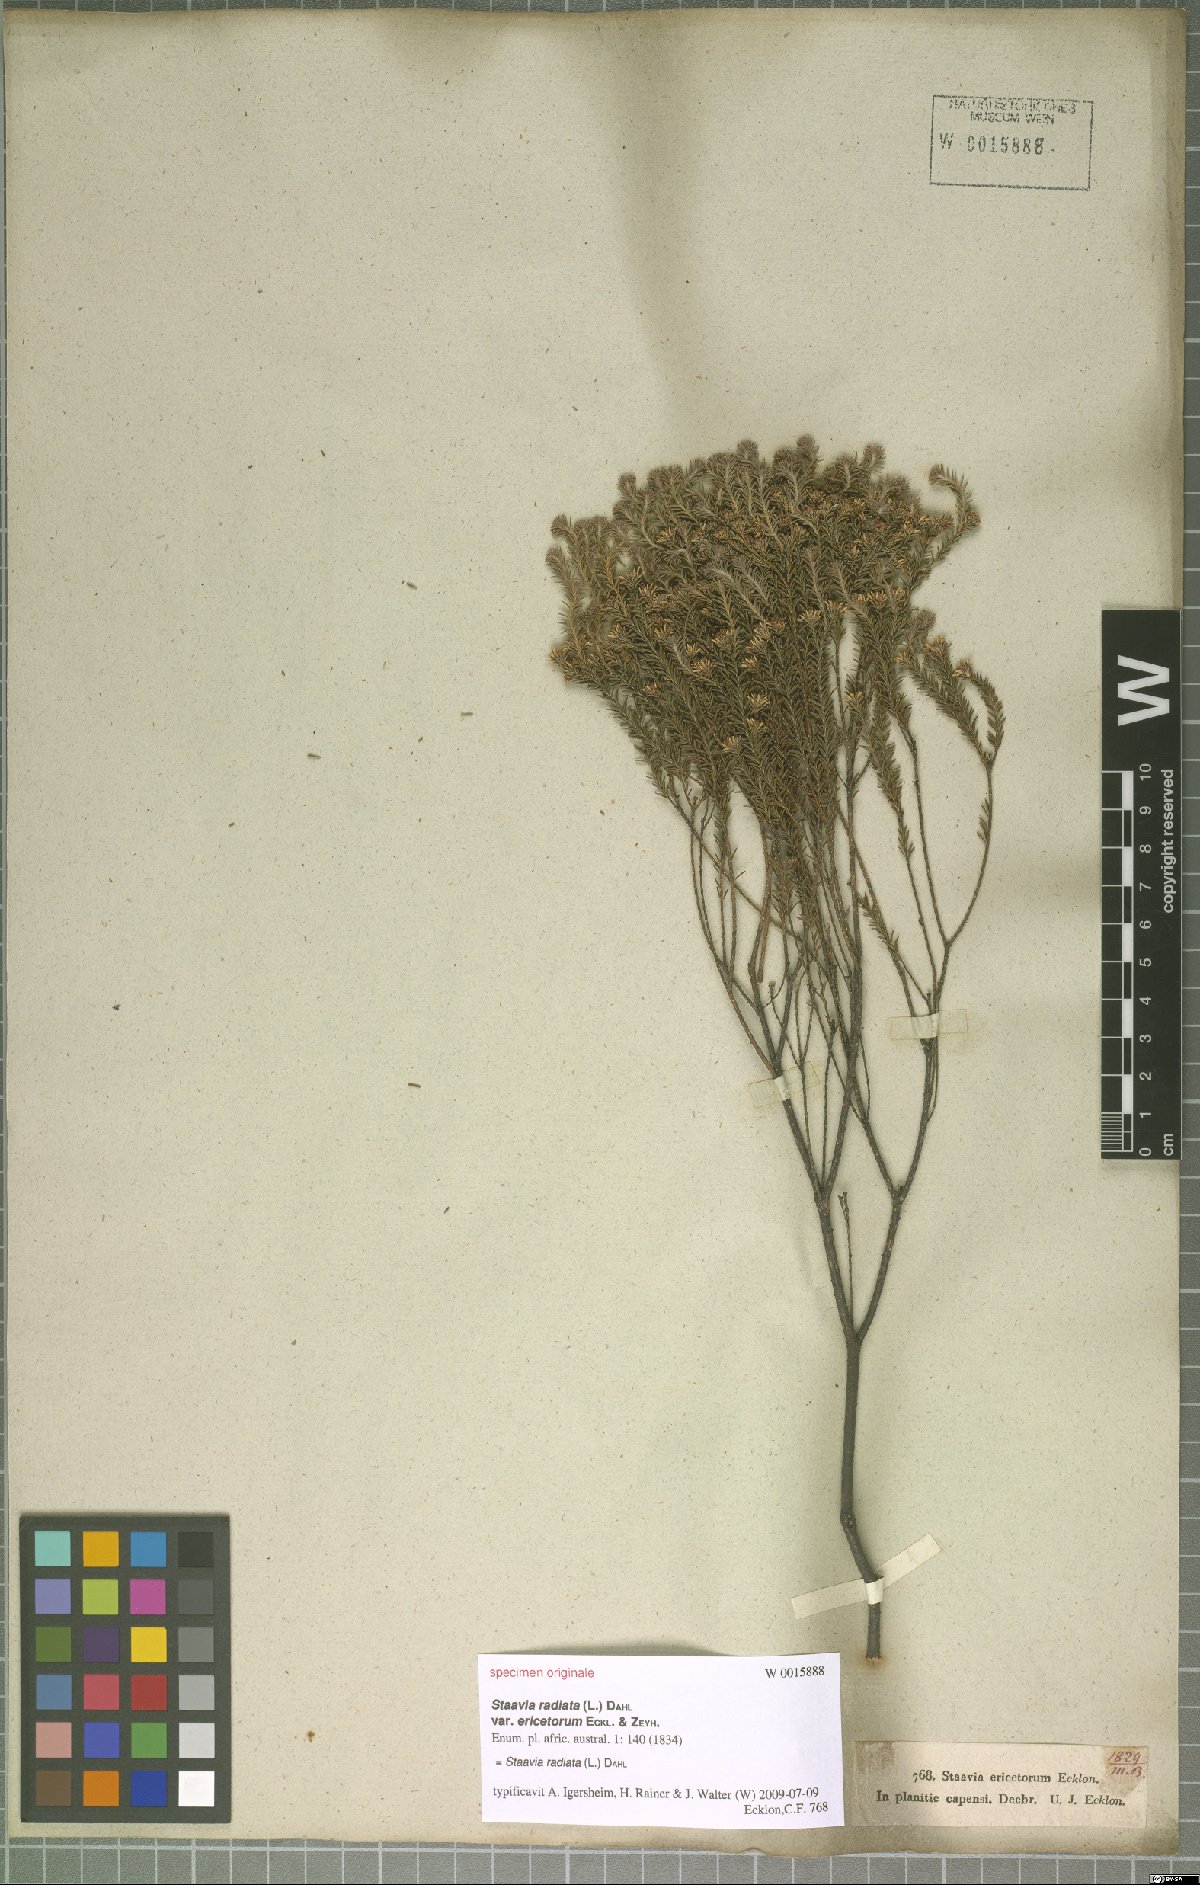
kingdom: Plantae
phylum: Tracheophyta
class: Magnoliopsida
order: Bruniales
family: Bruniaceae
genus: Staavia
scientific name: Staavia radiata
